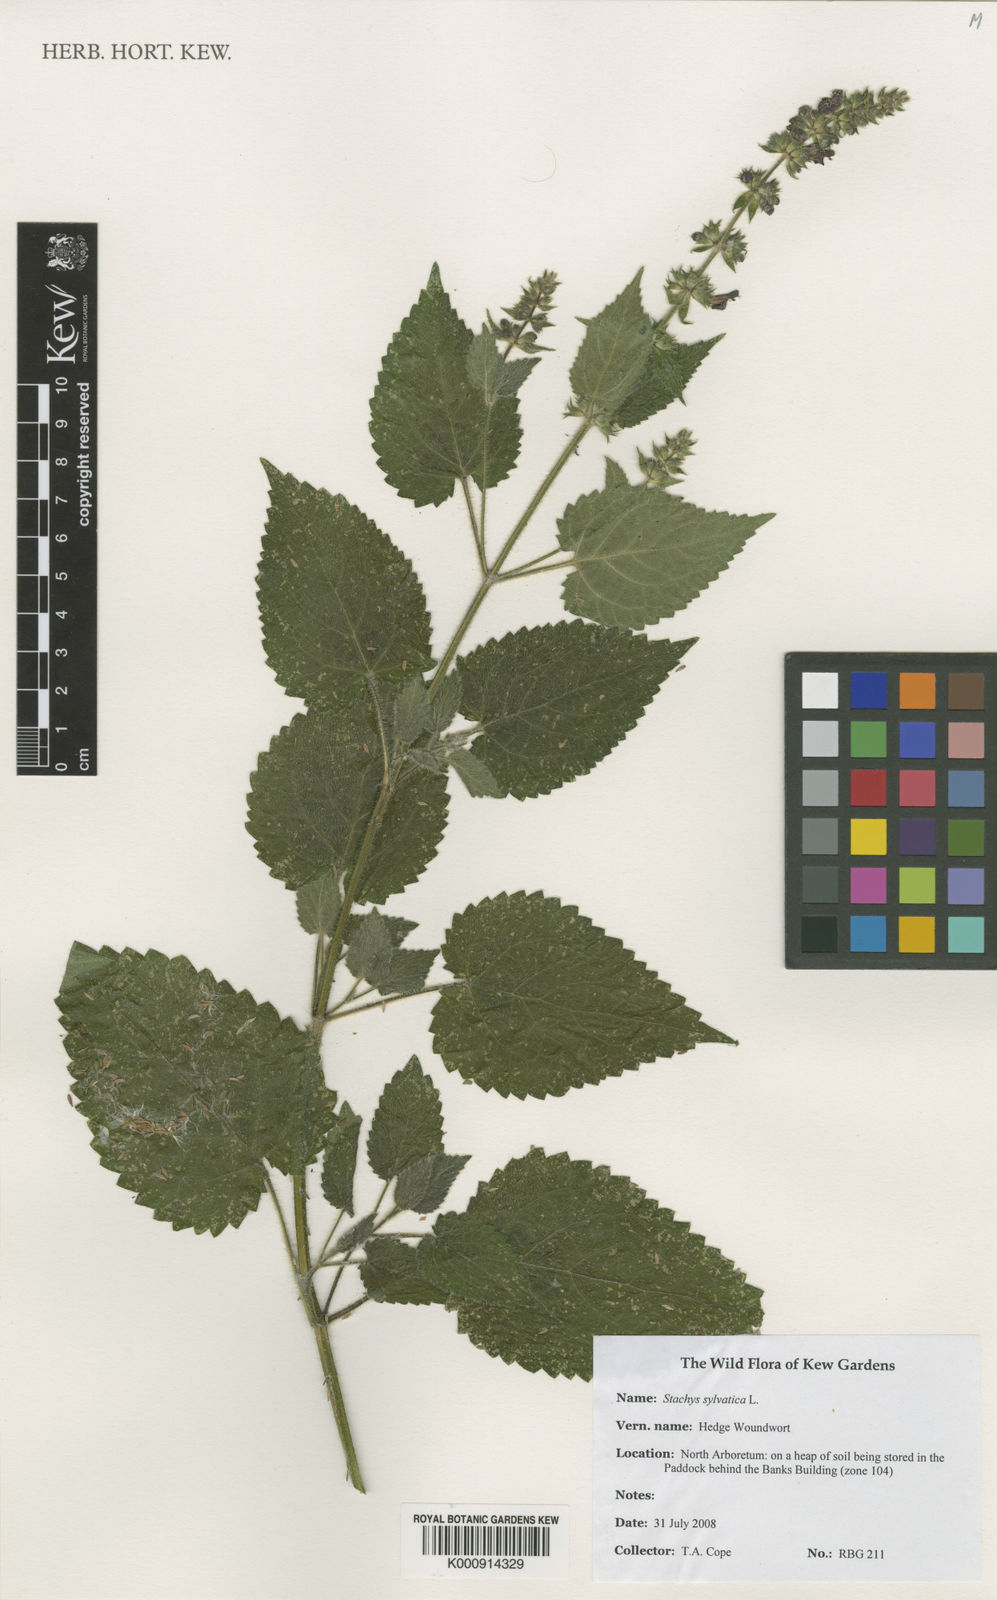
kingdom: Plantae
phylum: Tracheophyta
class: Magnoliopsida
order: Lamiales
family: Lamiaceae
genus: Stachys
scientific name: Stachys sylvatica
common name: Hedge woundwort
